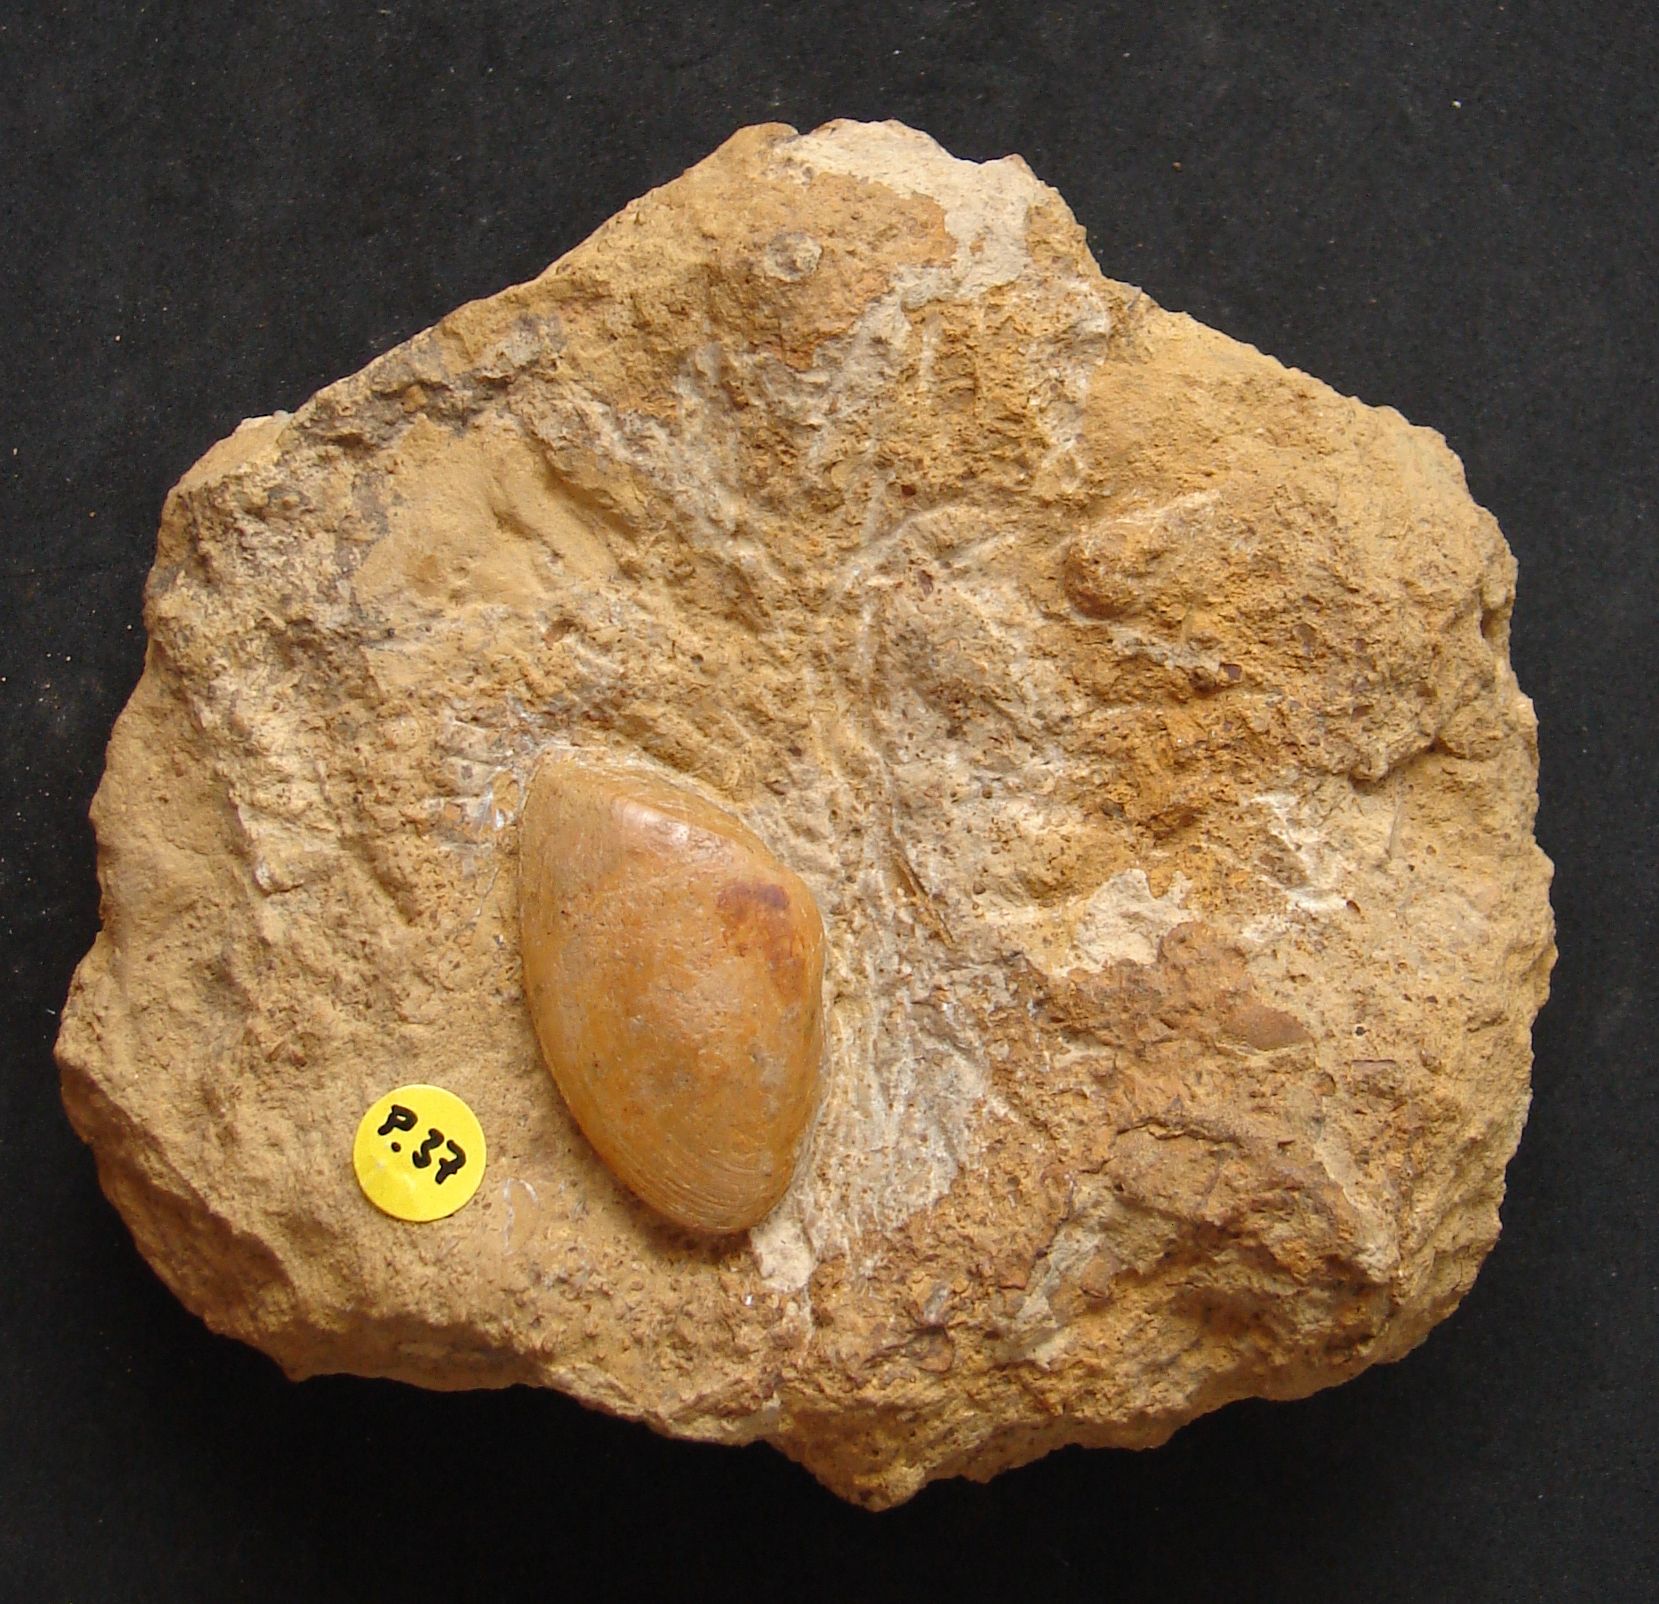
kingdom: Animalia
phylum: Mollusca
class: Bivalvia
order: Cardiida
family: Tancrediidae
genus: Tancredia
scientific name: Tancredia donaciformis
